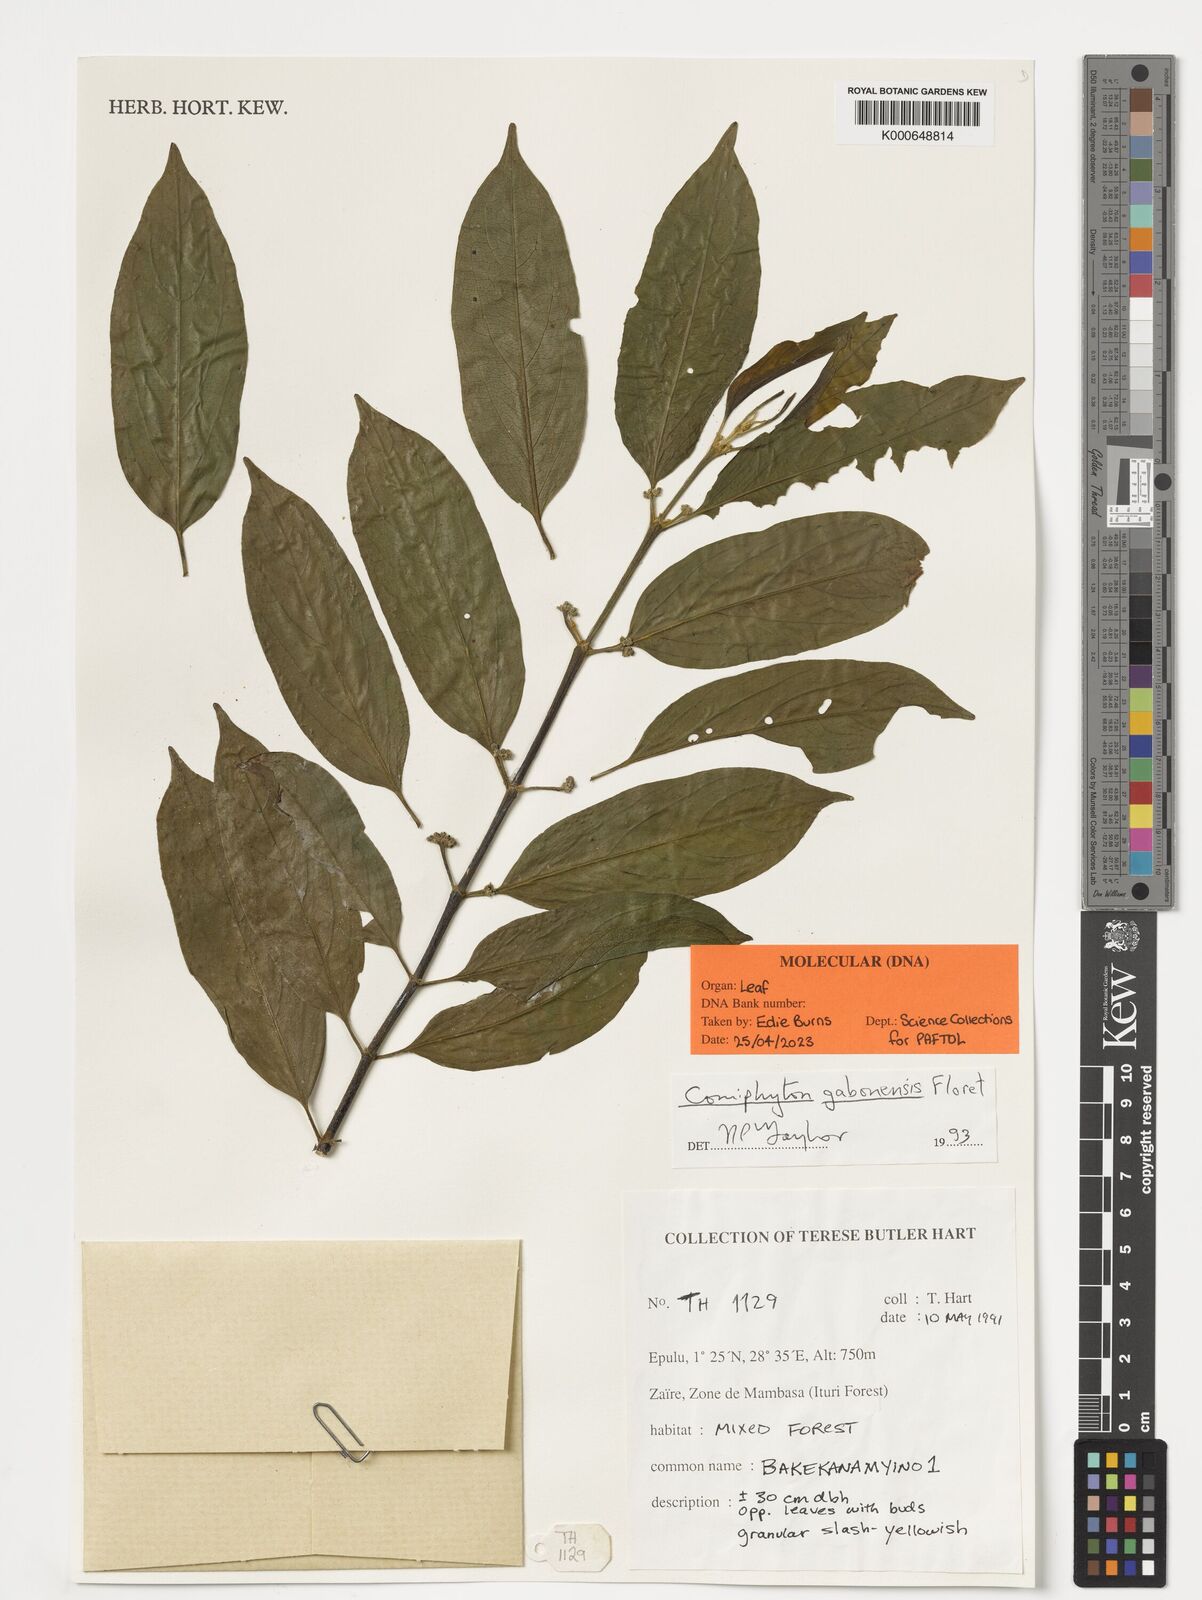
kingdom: Plantae
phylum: Tracheophyta
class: Magnoliopsida
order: Malpighiales
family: Rhizophoraceae
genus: Comiphyton
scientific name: Comiphyton gabonense
